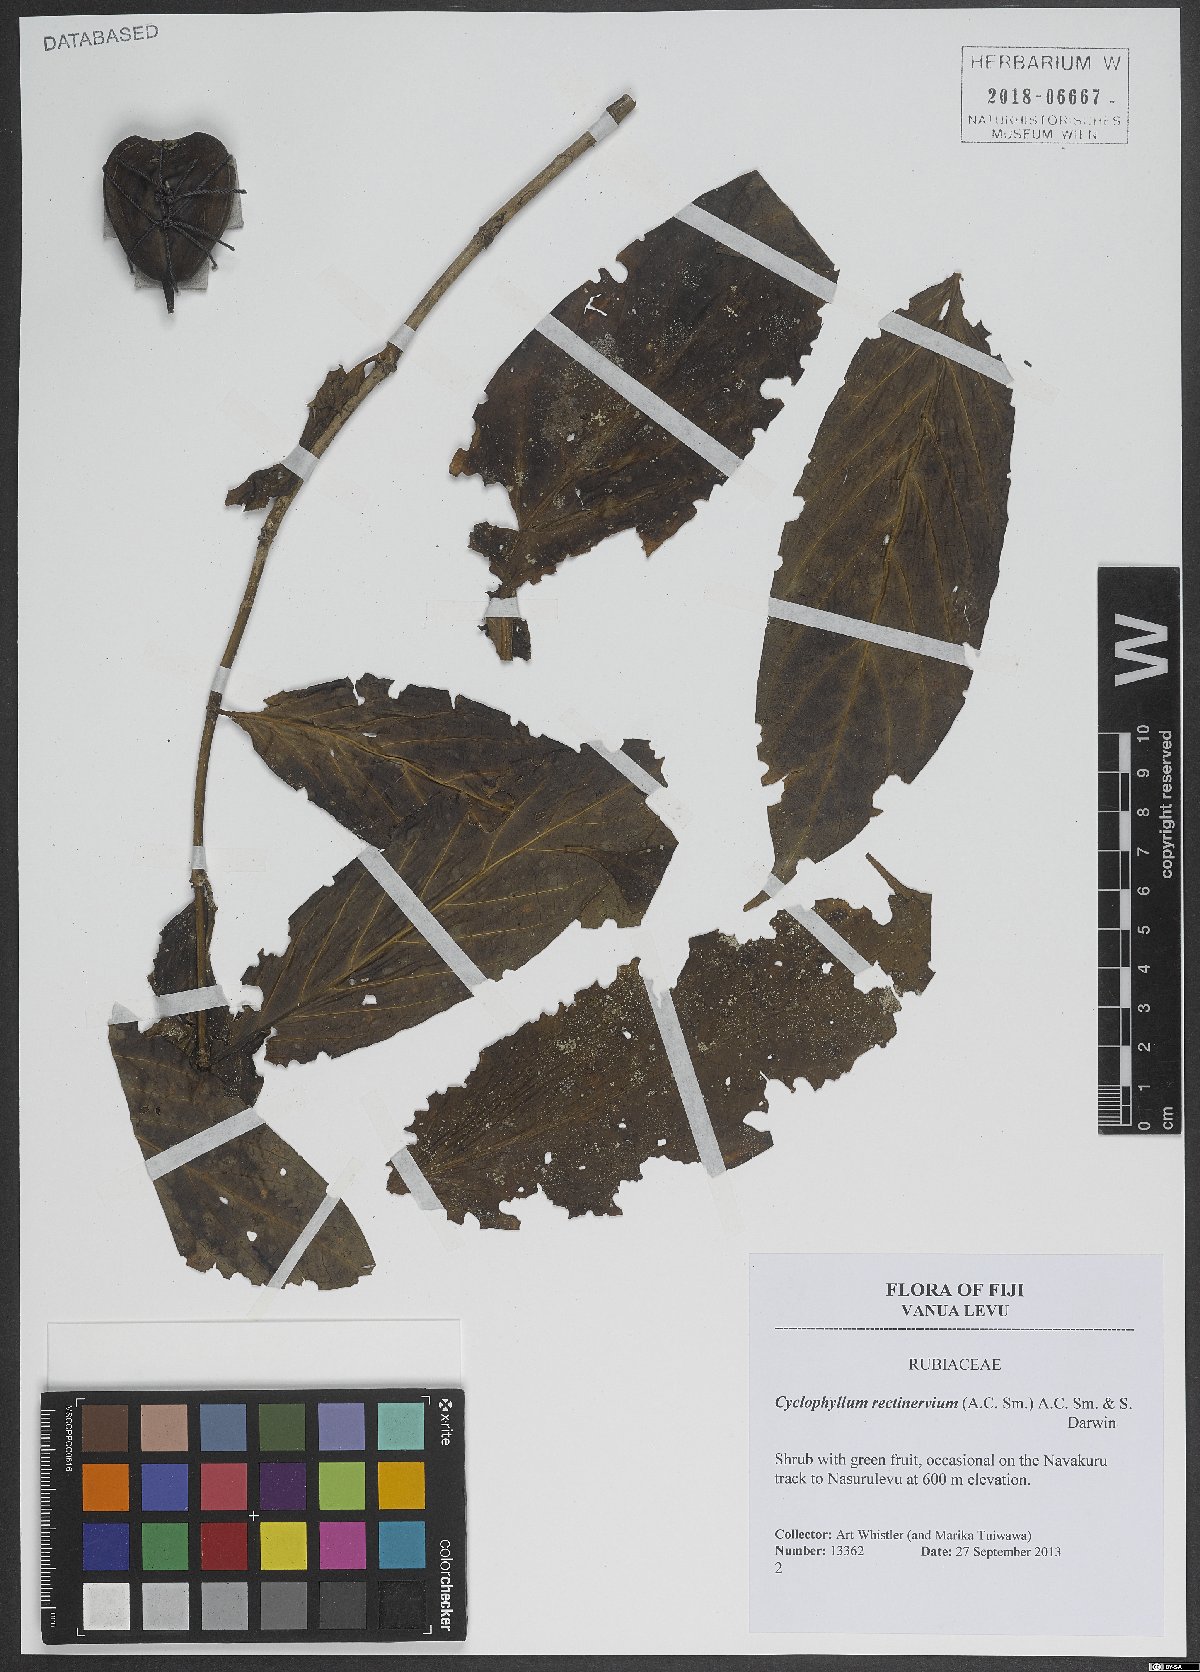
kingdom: Plantae
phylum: Tracheophyta
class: Magnoliopsida
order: Gentianales
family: Rubiaceae
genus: Cyclophyllum
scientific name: Cyclophyllum rectinervium
